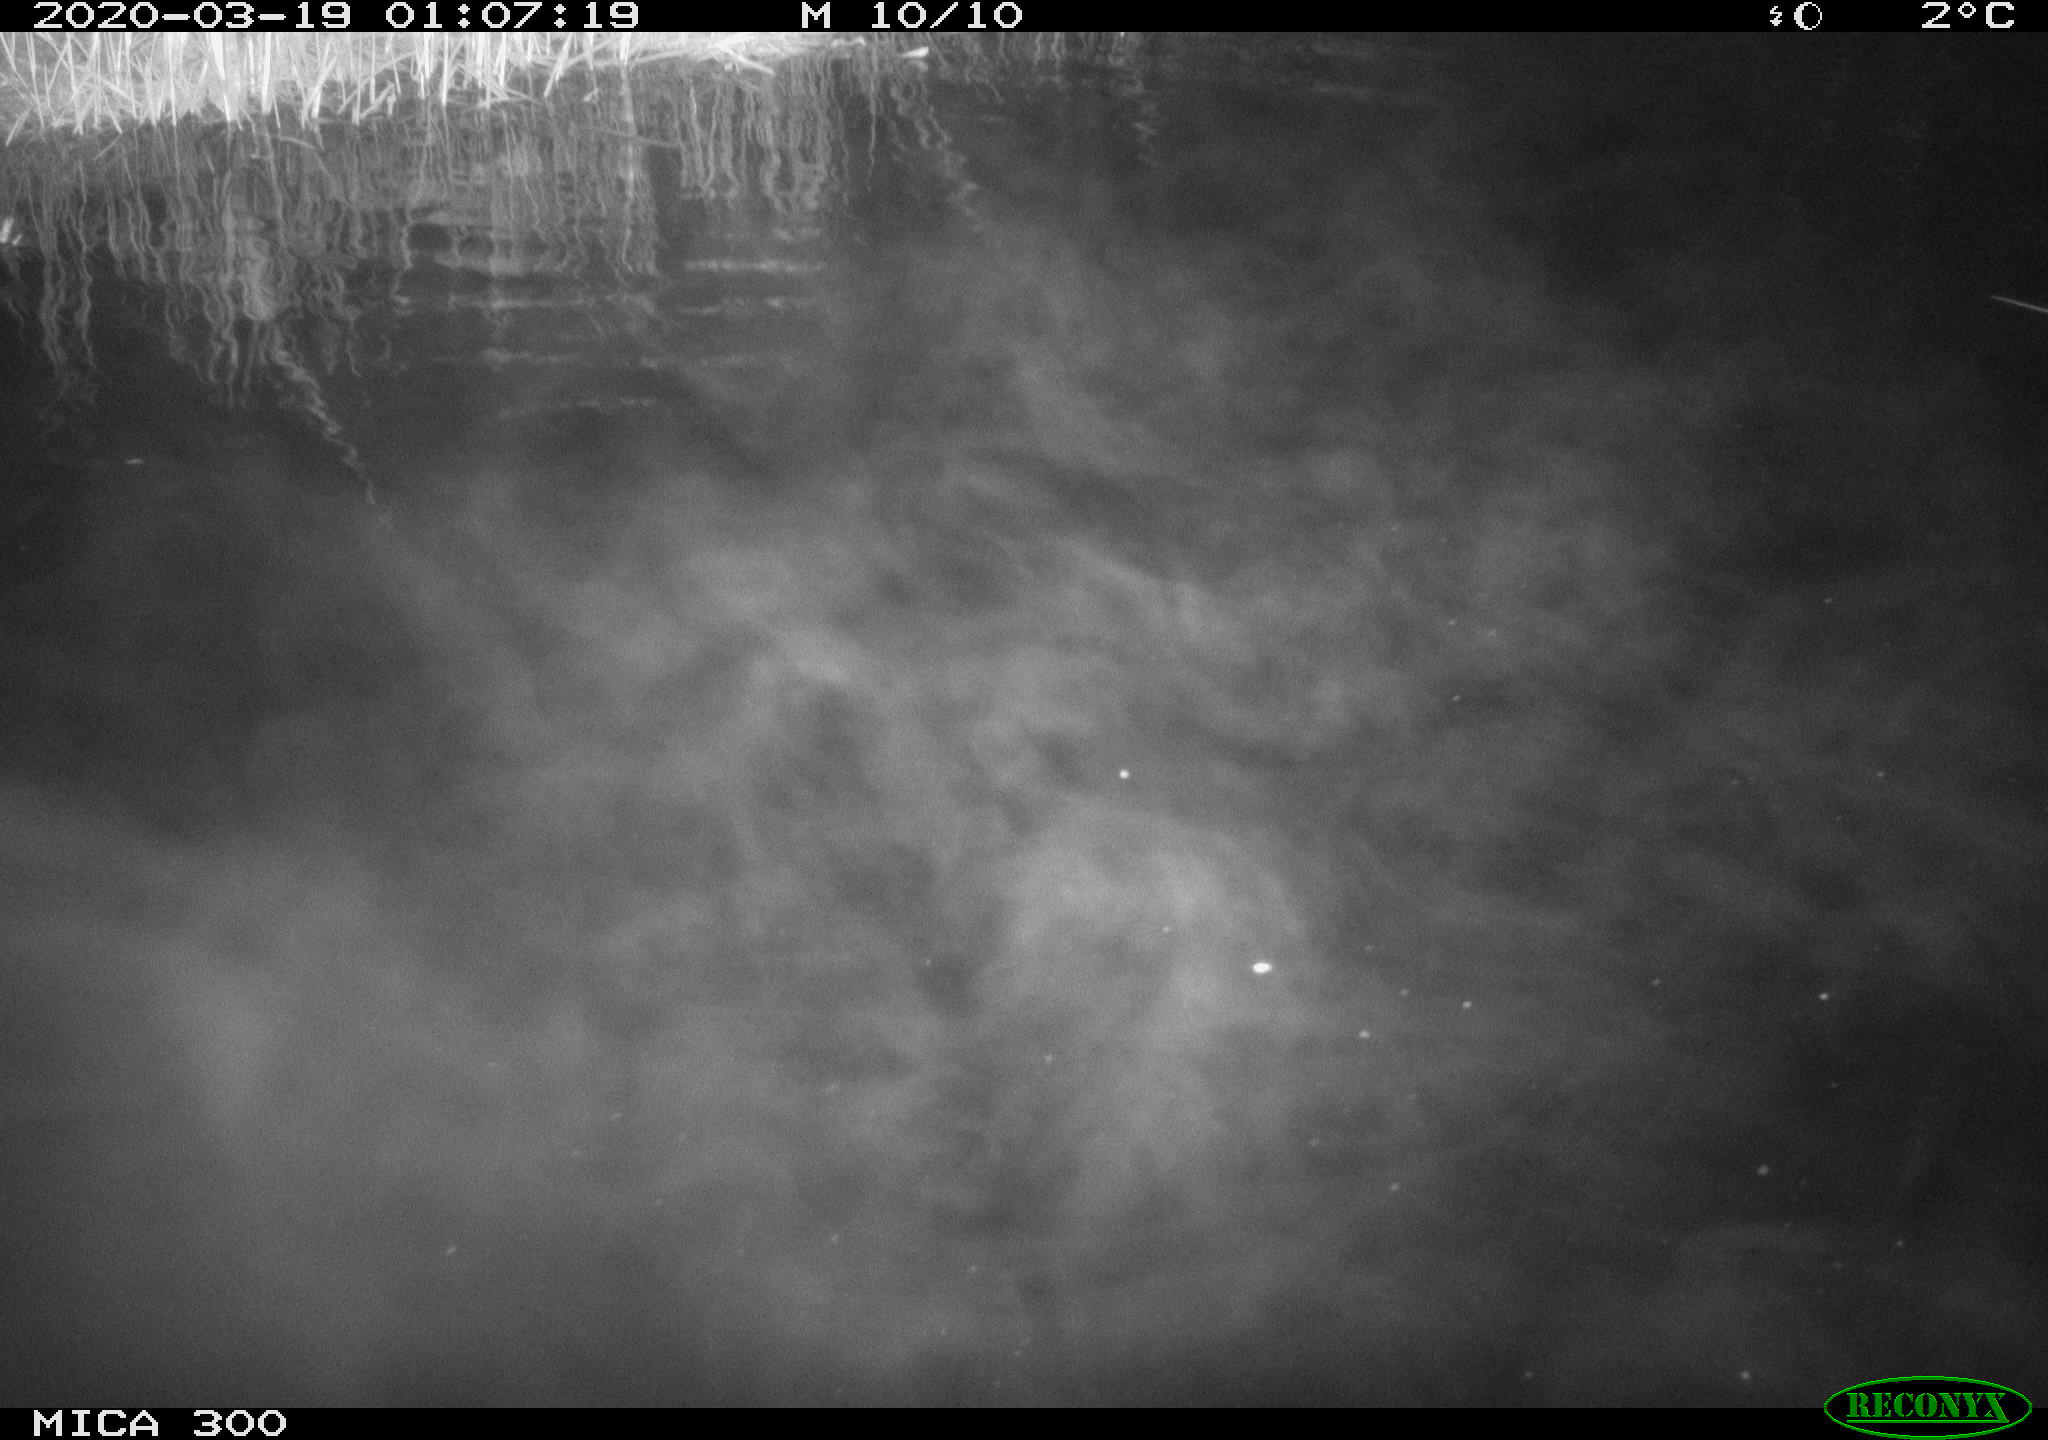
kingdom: Animalia
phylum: Chordata
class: Mammalia
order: Rodentia
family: Castoridae
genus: Castor
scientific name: Castor fiber
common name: Eurasian beaver
